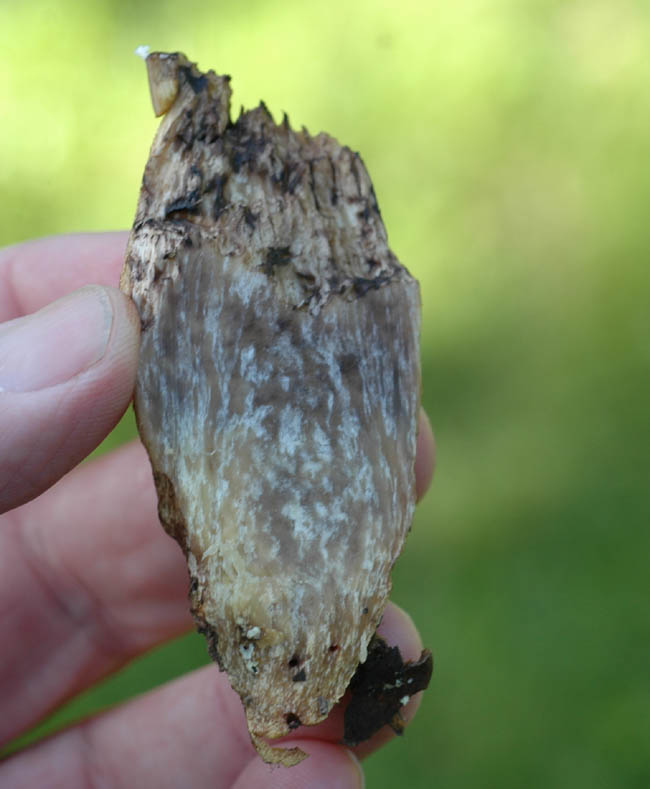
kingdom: Fungi
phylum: Basidiomycota
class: Agaricomycetes
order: Boletales
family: Boletaceae
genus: Leccinellum
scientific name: Leccinellum crocipodium
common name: gul skælrørhat
